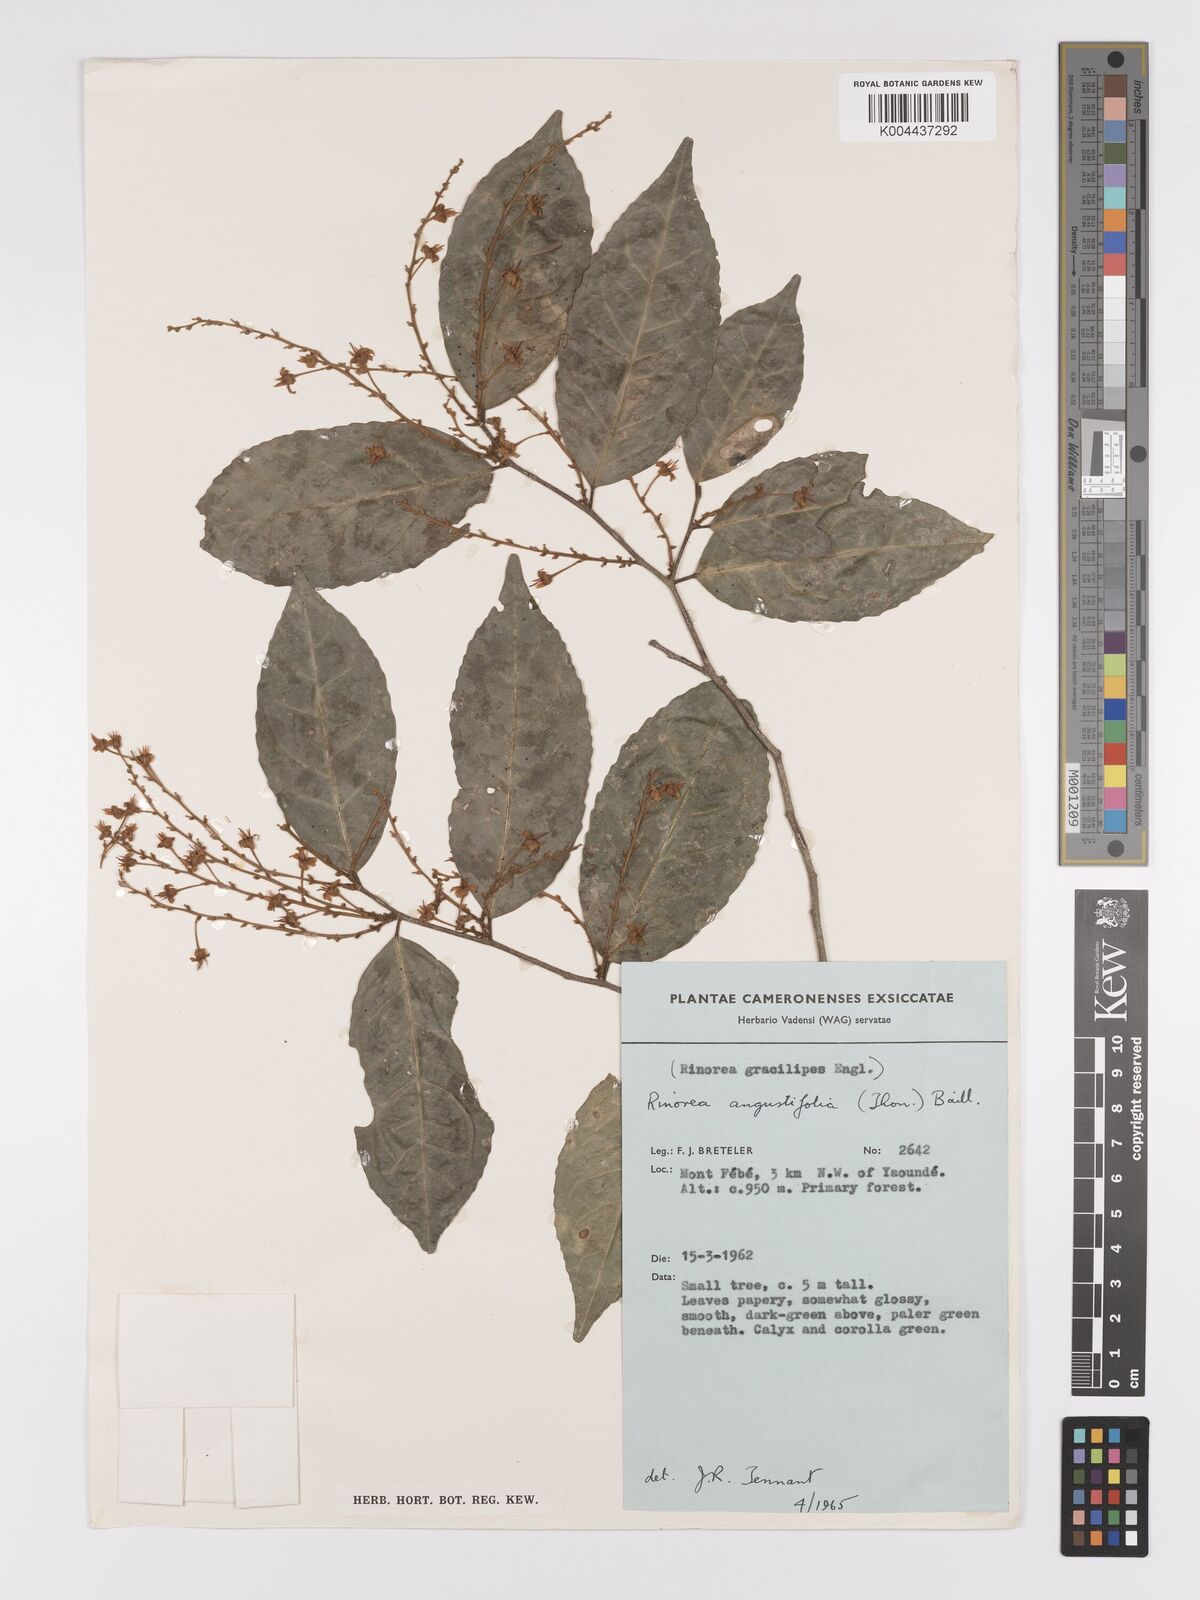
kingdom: Plantae
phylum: Tracheophyta
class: Magnoliopsida
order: Malpighiales
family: Violaceae
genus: Rinorea
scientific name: Rinorea angustifolia
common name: White violet-bush
